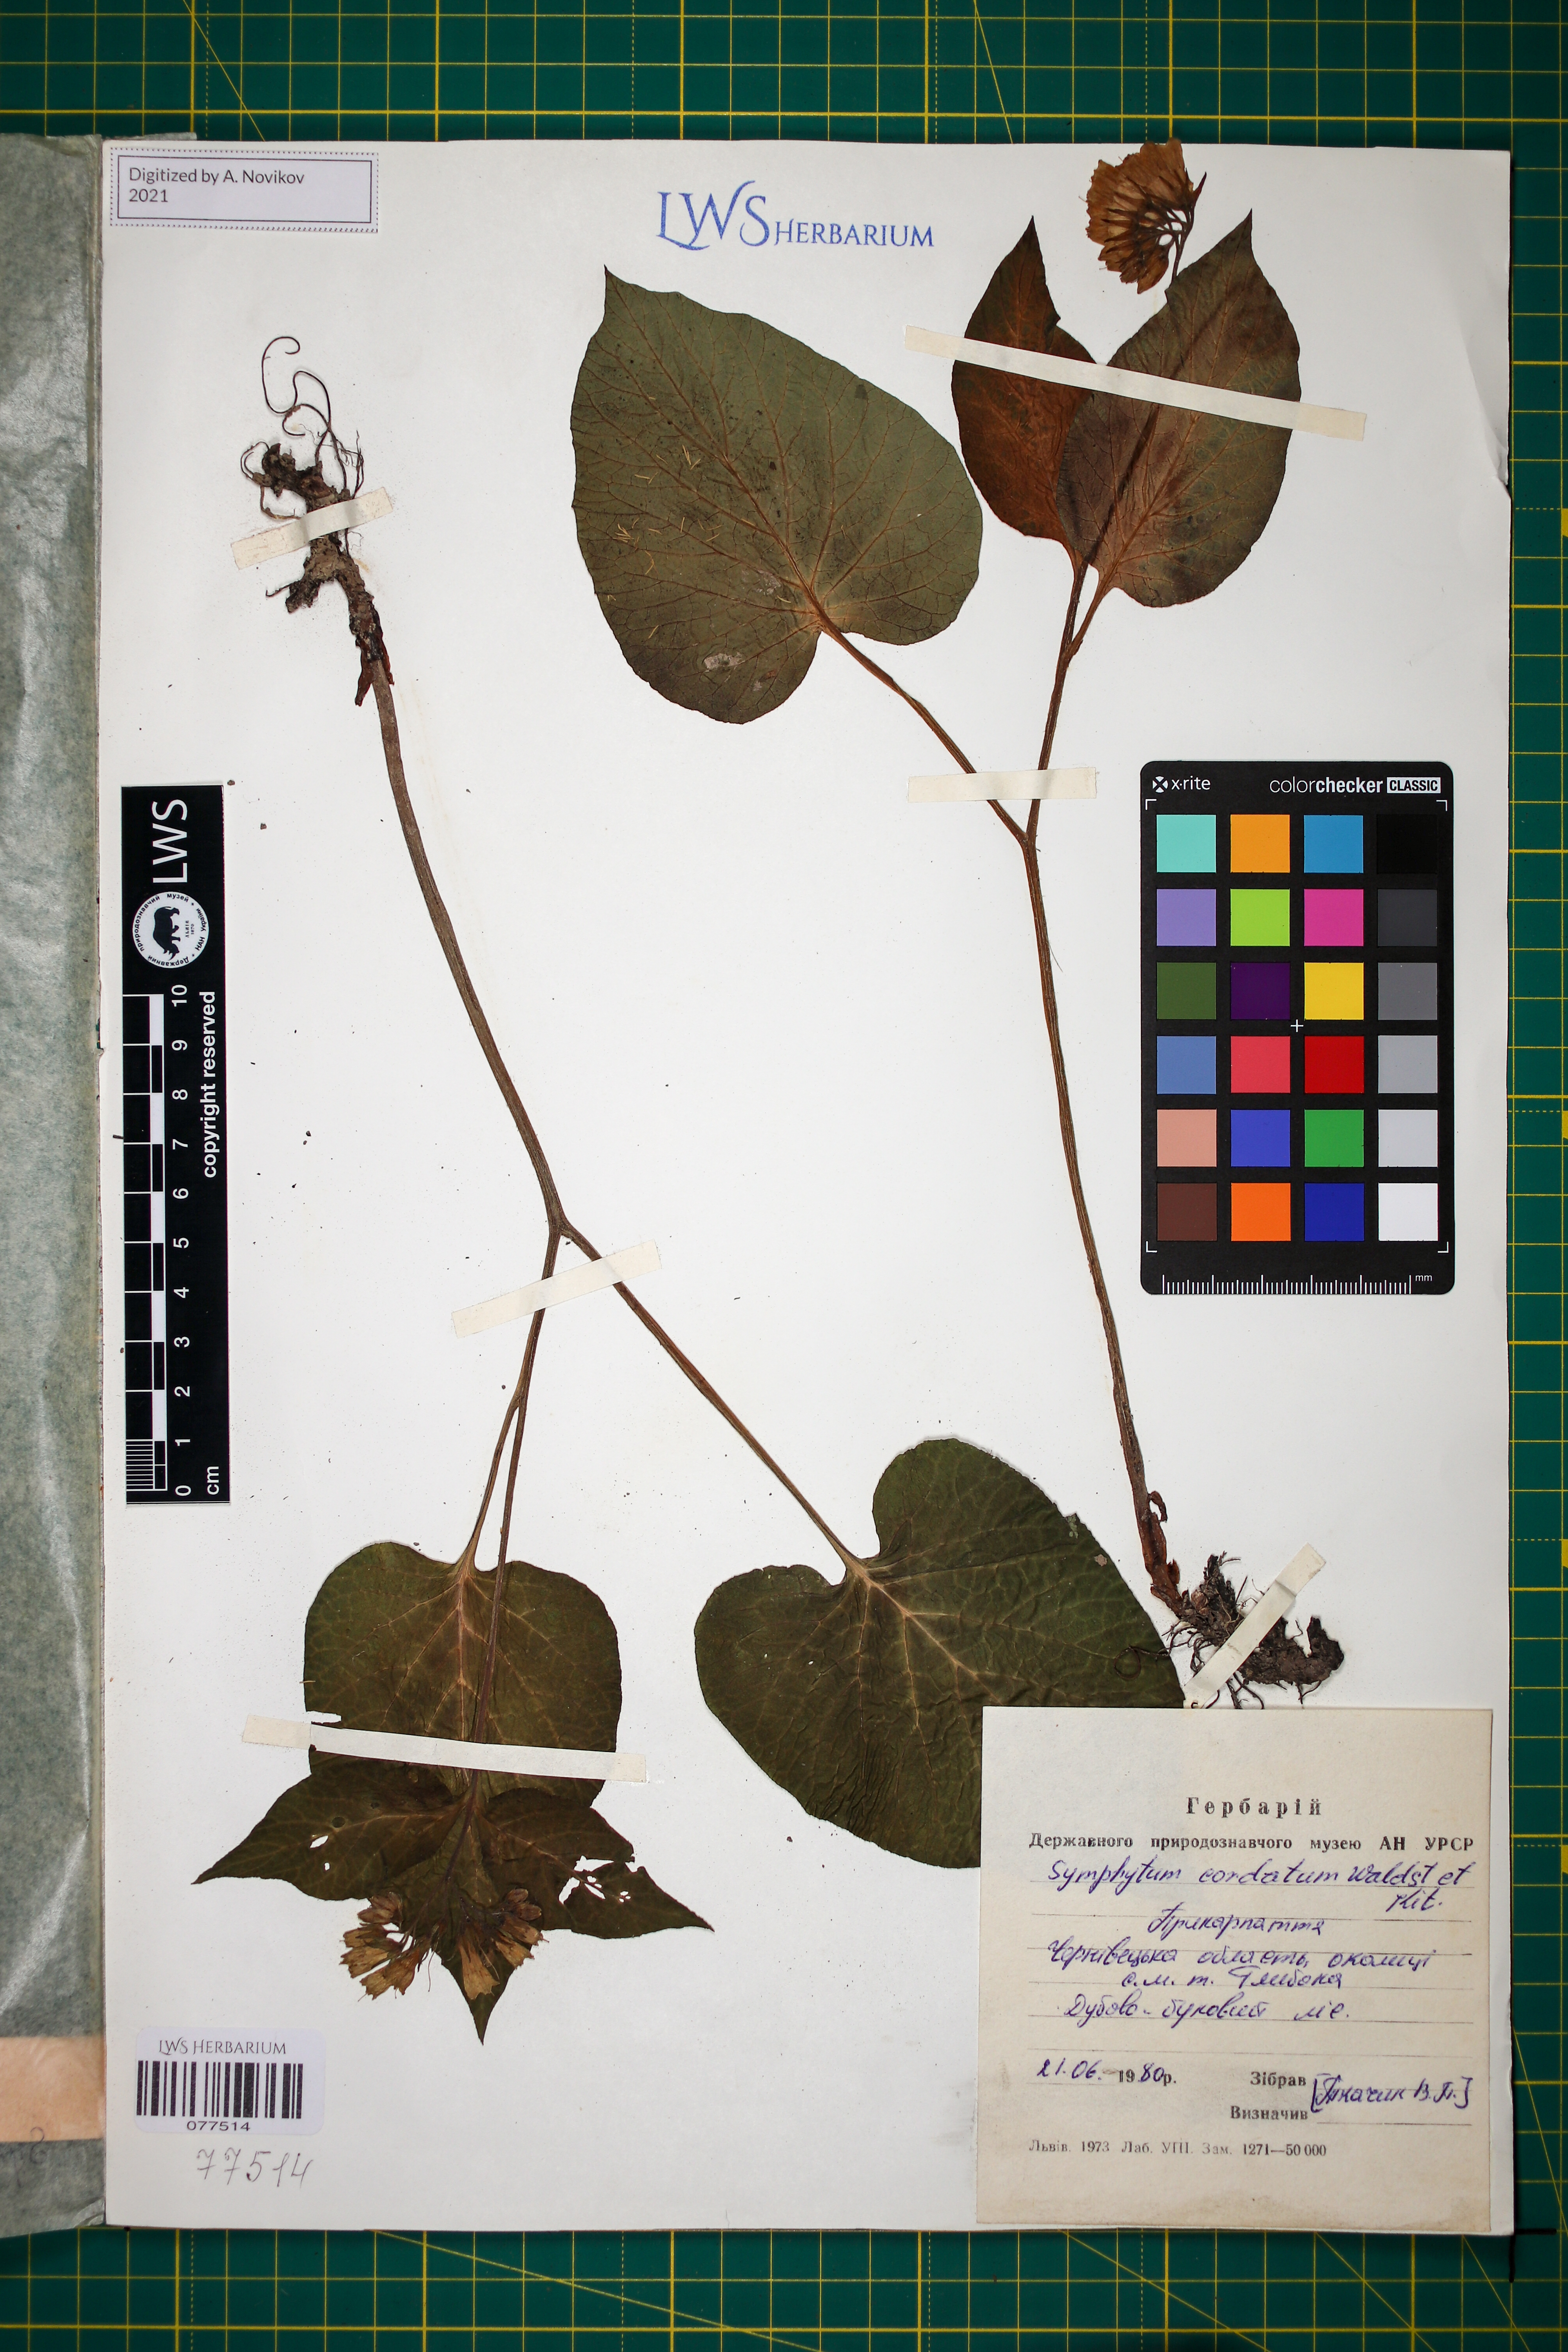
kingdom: Plantae
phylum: Tracheophyta
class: Magnoliopsida
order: Boraginales
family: Boraginaceae
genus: Symphytum
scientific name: Symphytum cordatum
